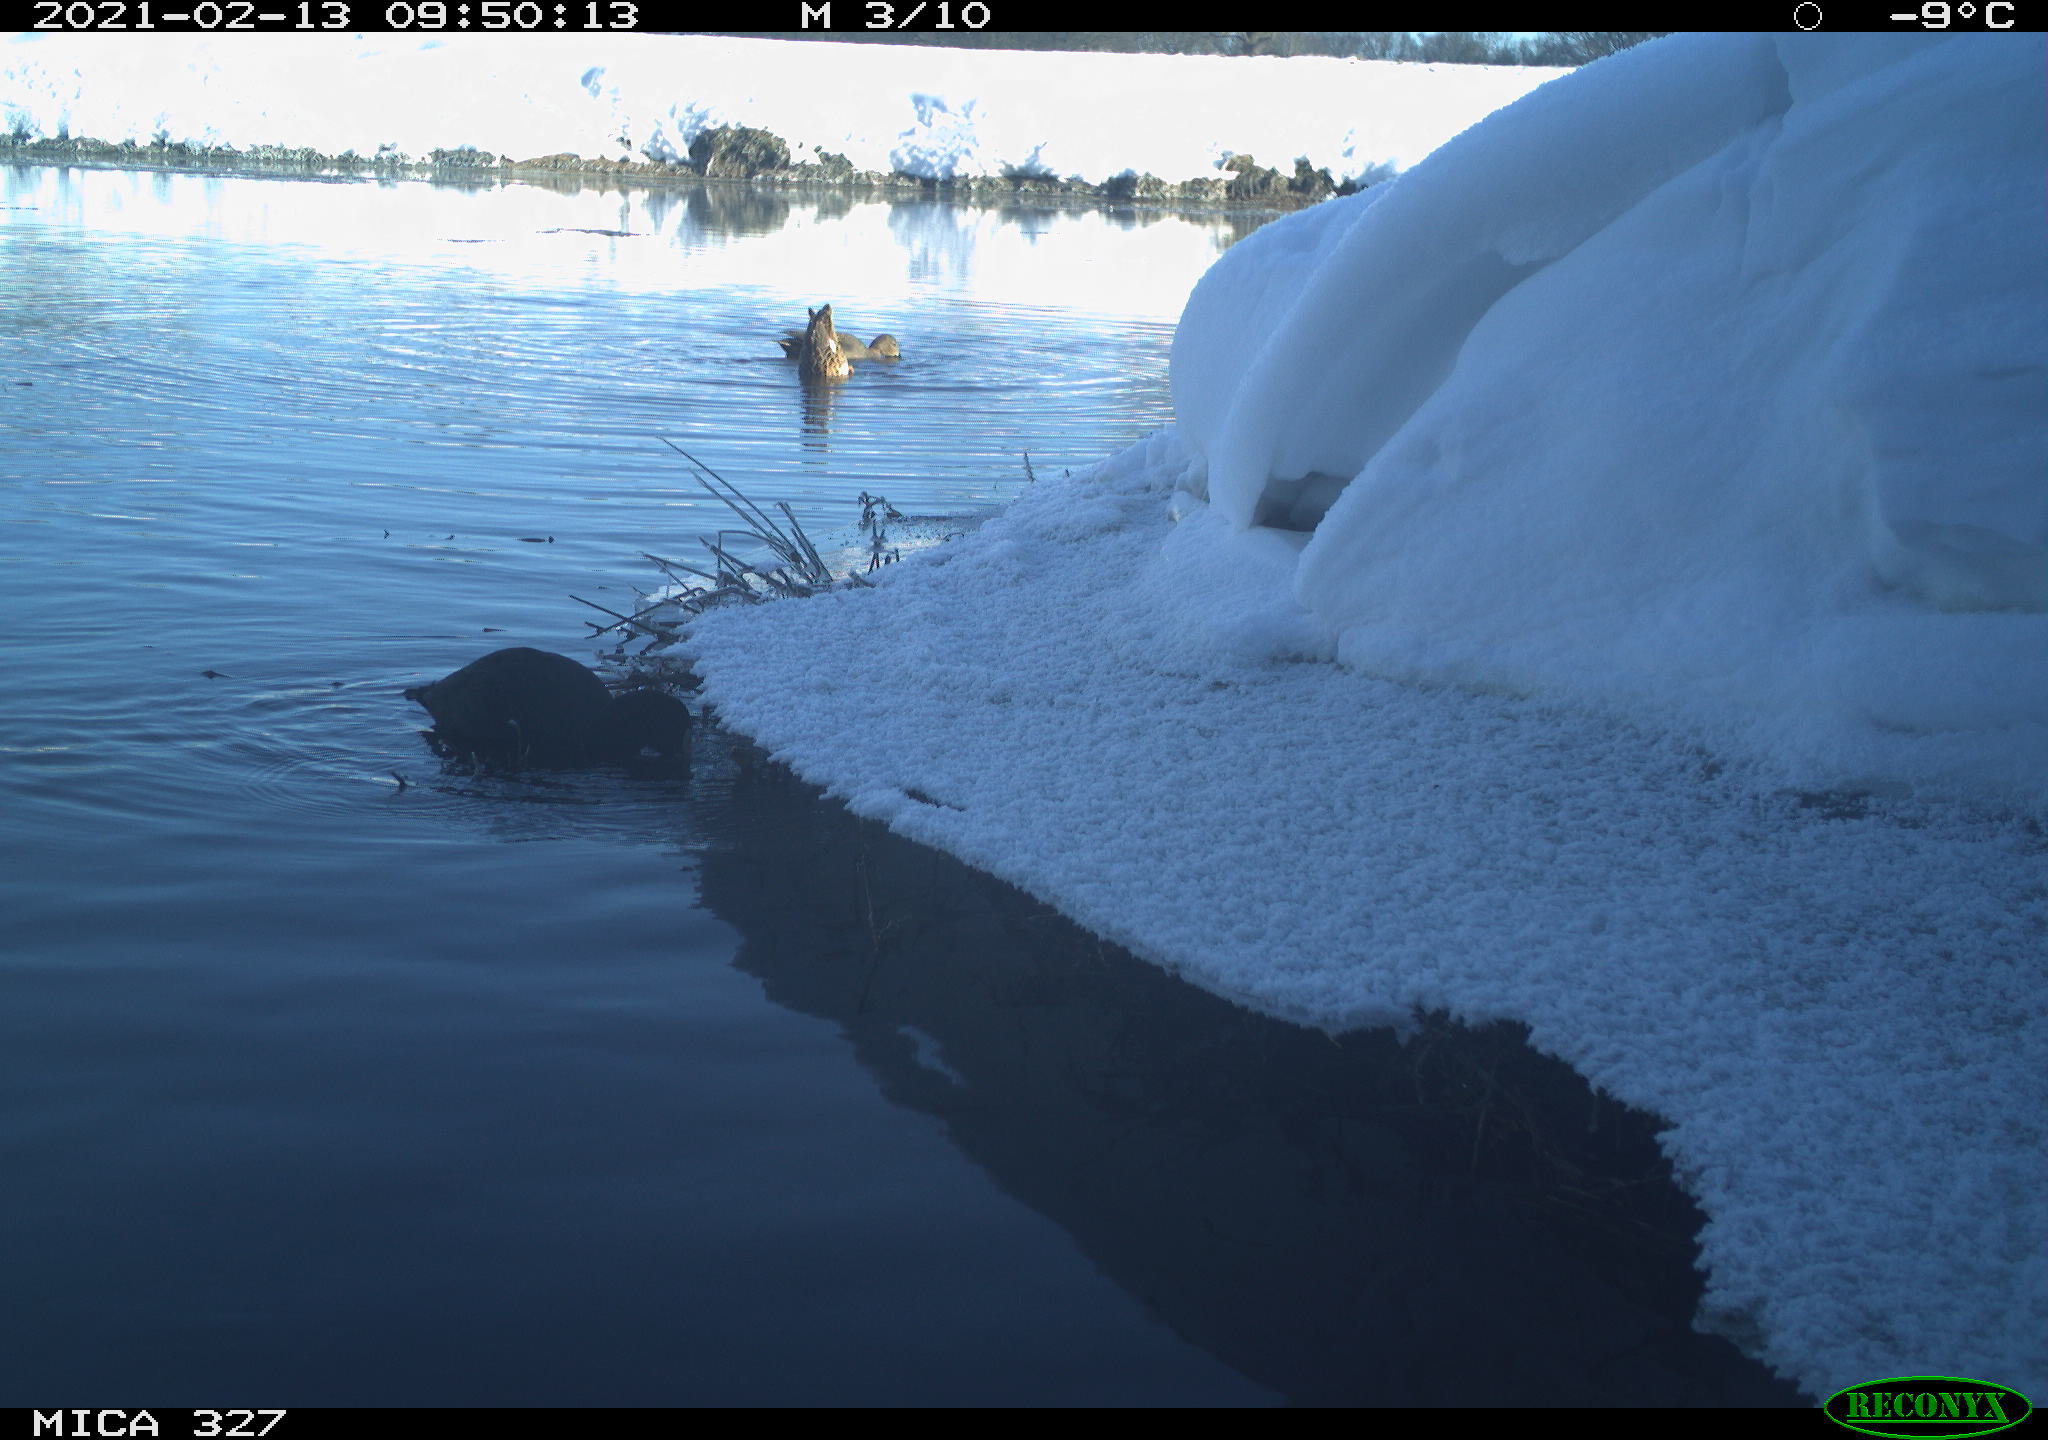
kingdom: Animalia
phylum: Chordata
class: Aves
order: Gruiformes
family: Rallidae
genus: Fulica
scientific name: Fulica atra
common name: Eurasian coot
